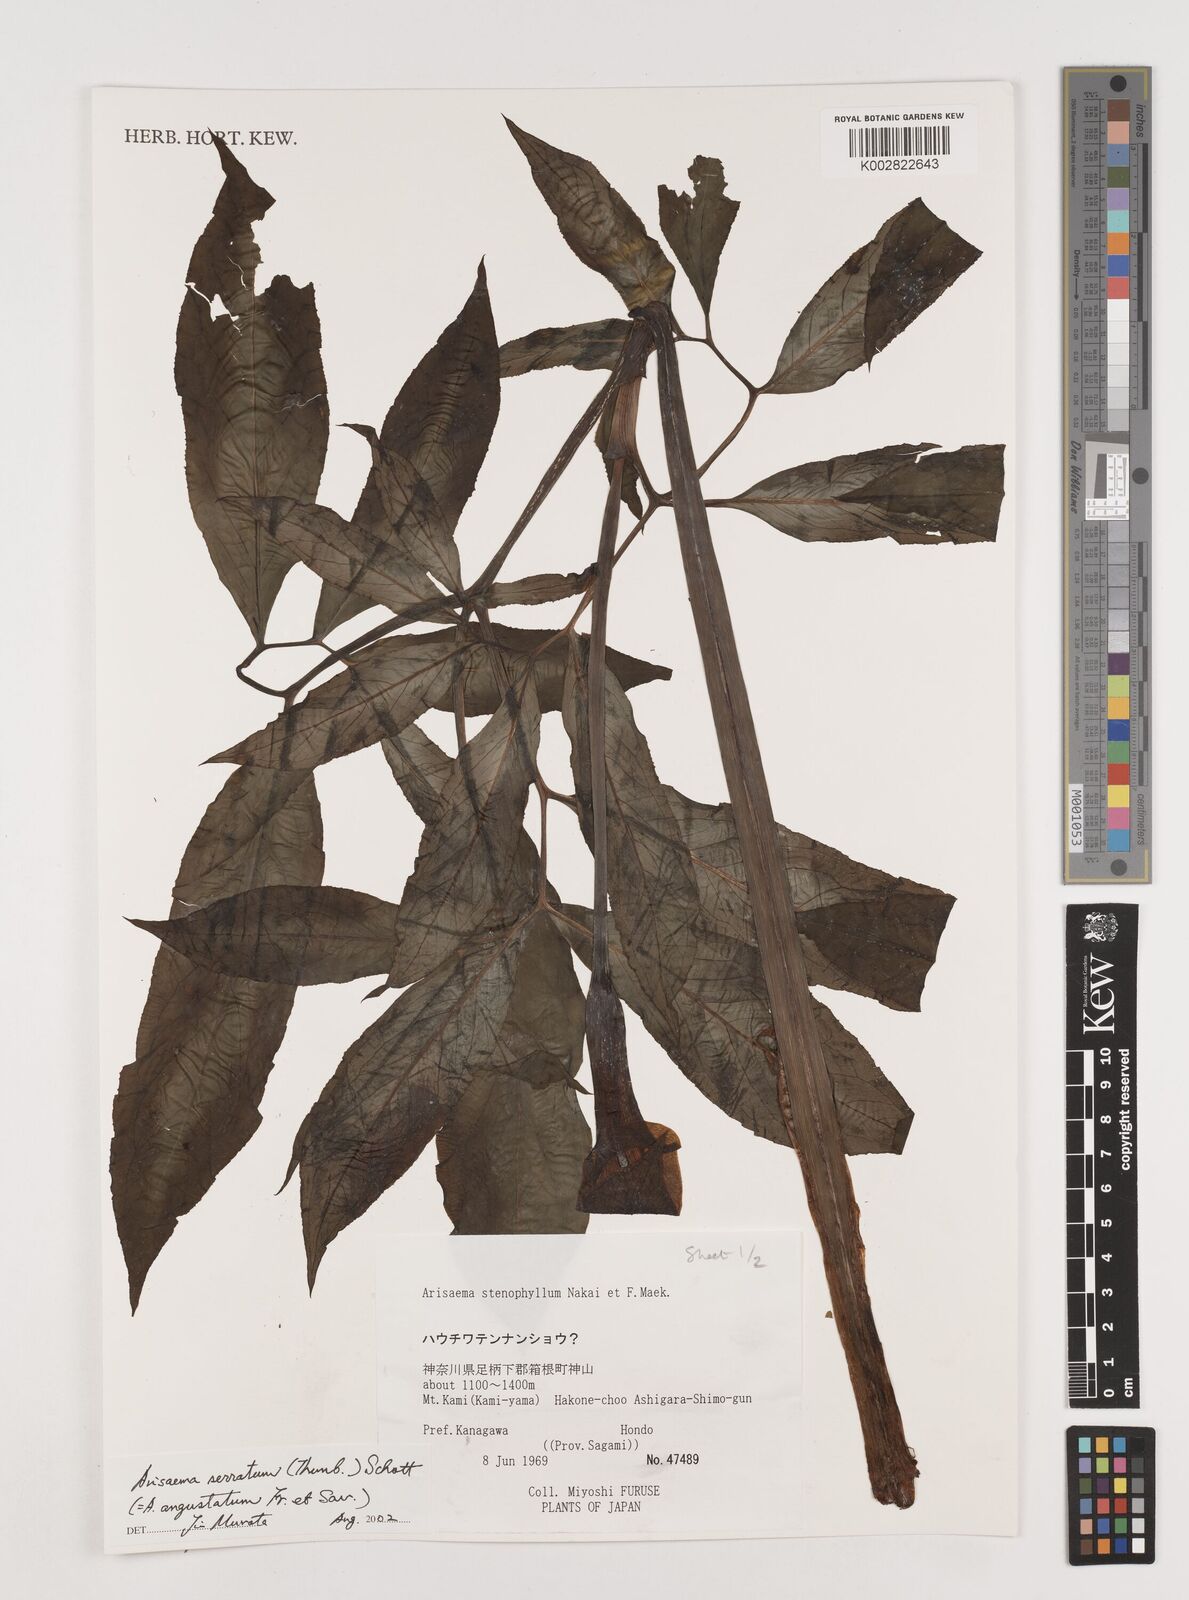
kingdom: Plantae
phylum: Tracheophyta
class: Liliopsida
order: Alismatales
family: Araceae
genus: Arisaema
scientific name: Arisaema serratum
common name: Japanese arisaema
